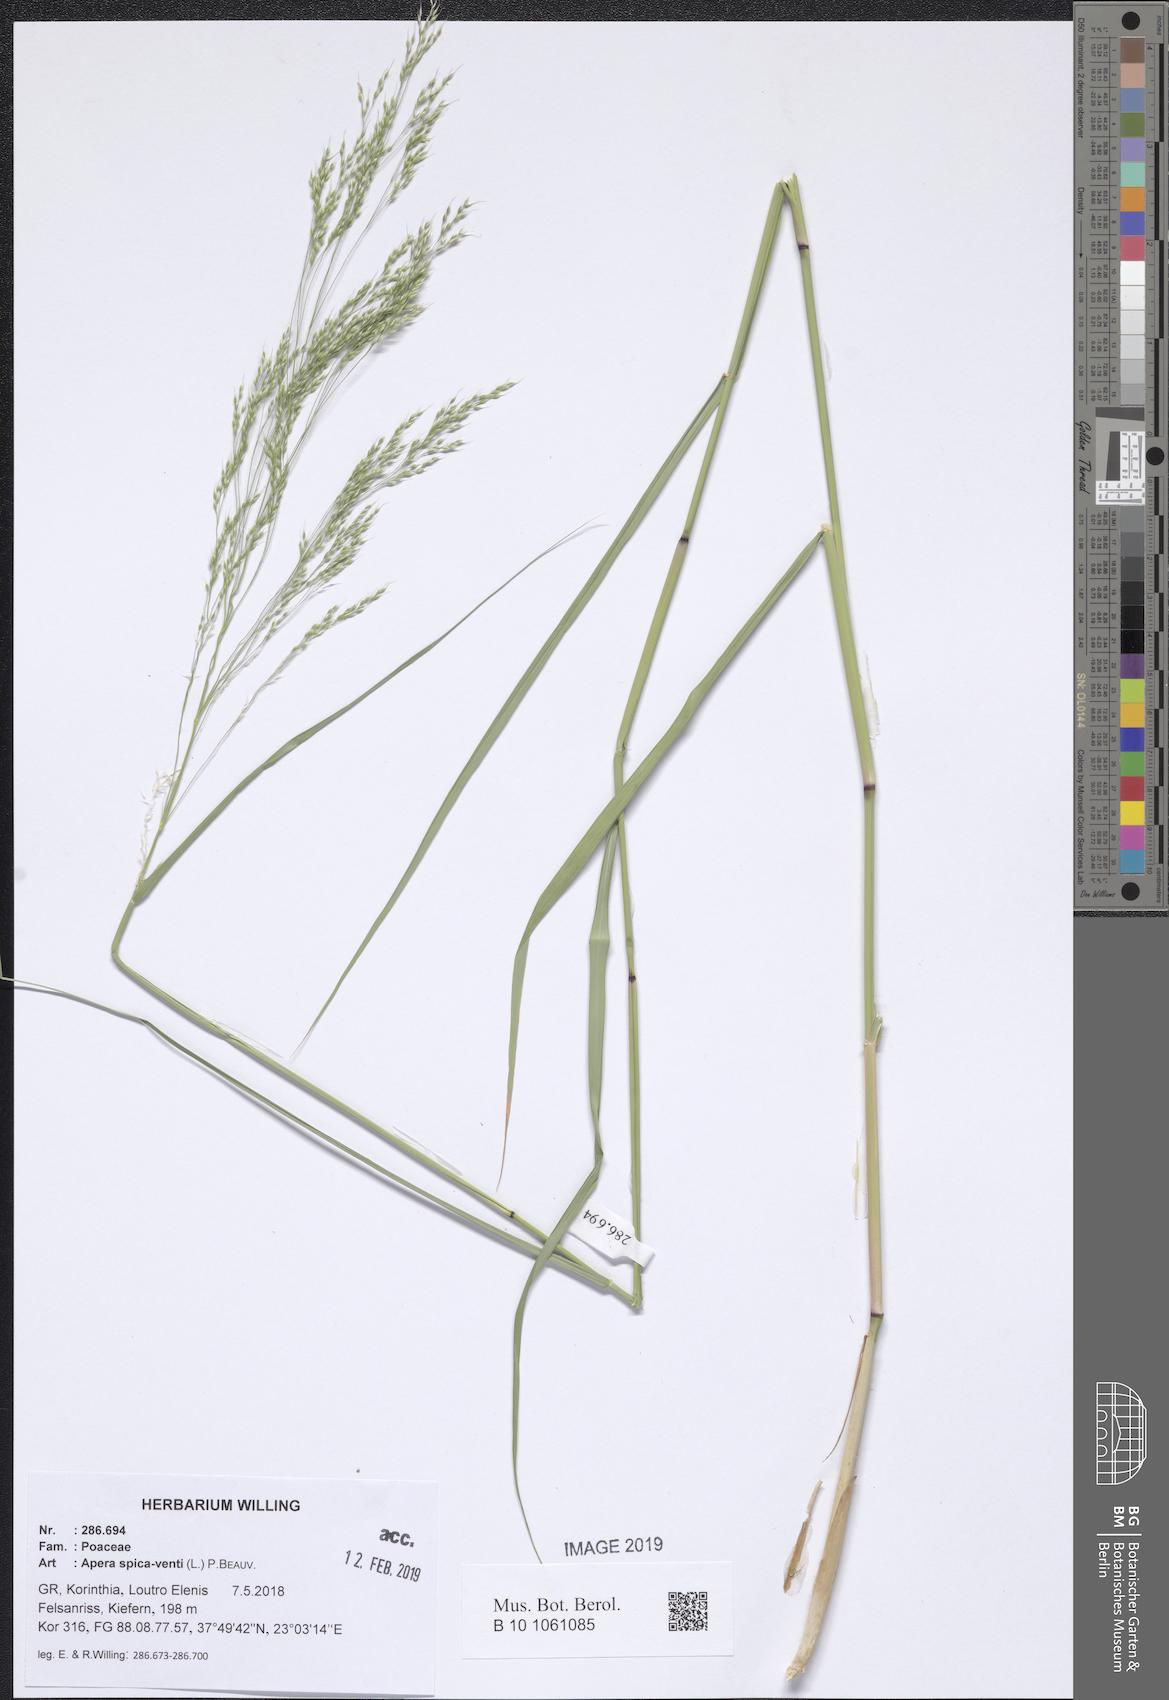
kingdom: Plantae
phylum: Tracheophyta
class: Liliopsida
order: Poales
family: Poaceae
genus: Apera
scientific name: Apera spica-venti
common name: Loose silky-bent
